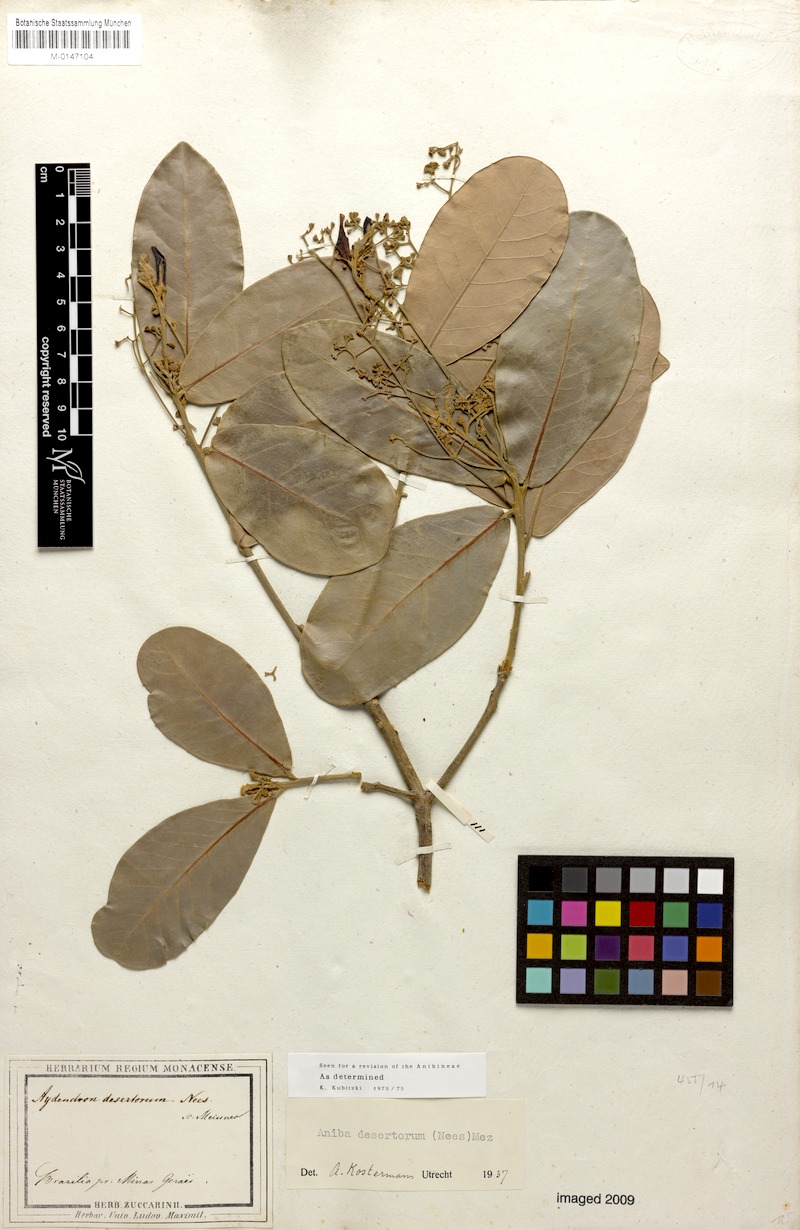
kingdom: Plantae
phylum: Tracheophyta
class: Magnoliopsida
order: Laurales
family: Lauraceae
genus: Aniba
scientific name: Aniba desertorum
